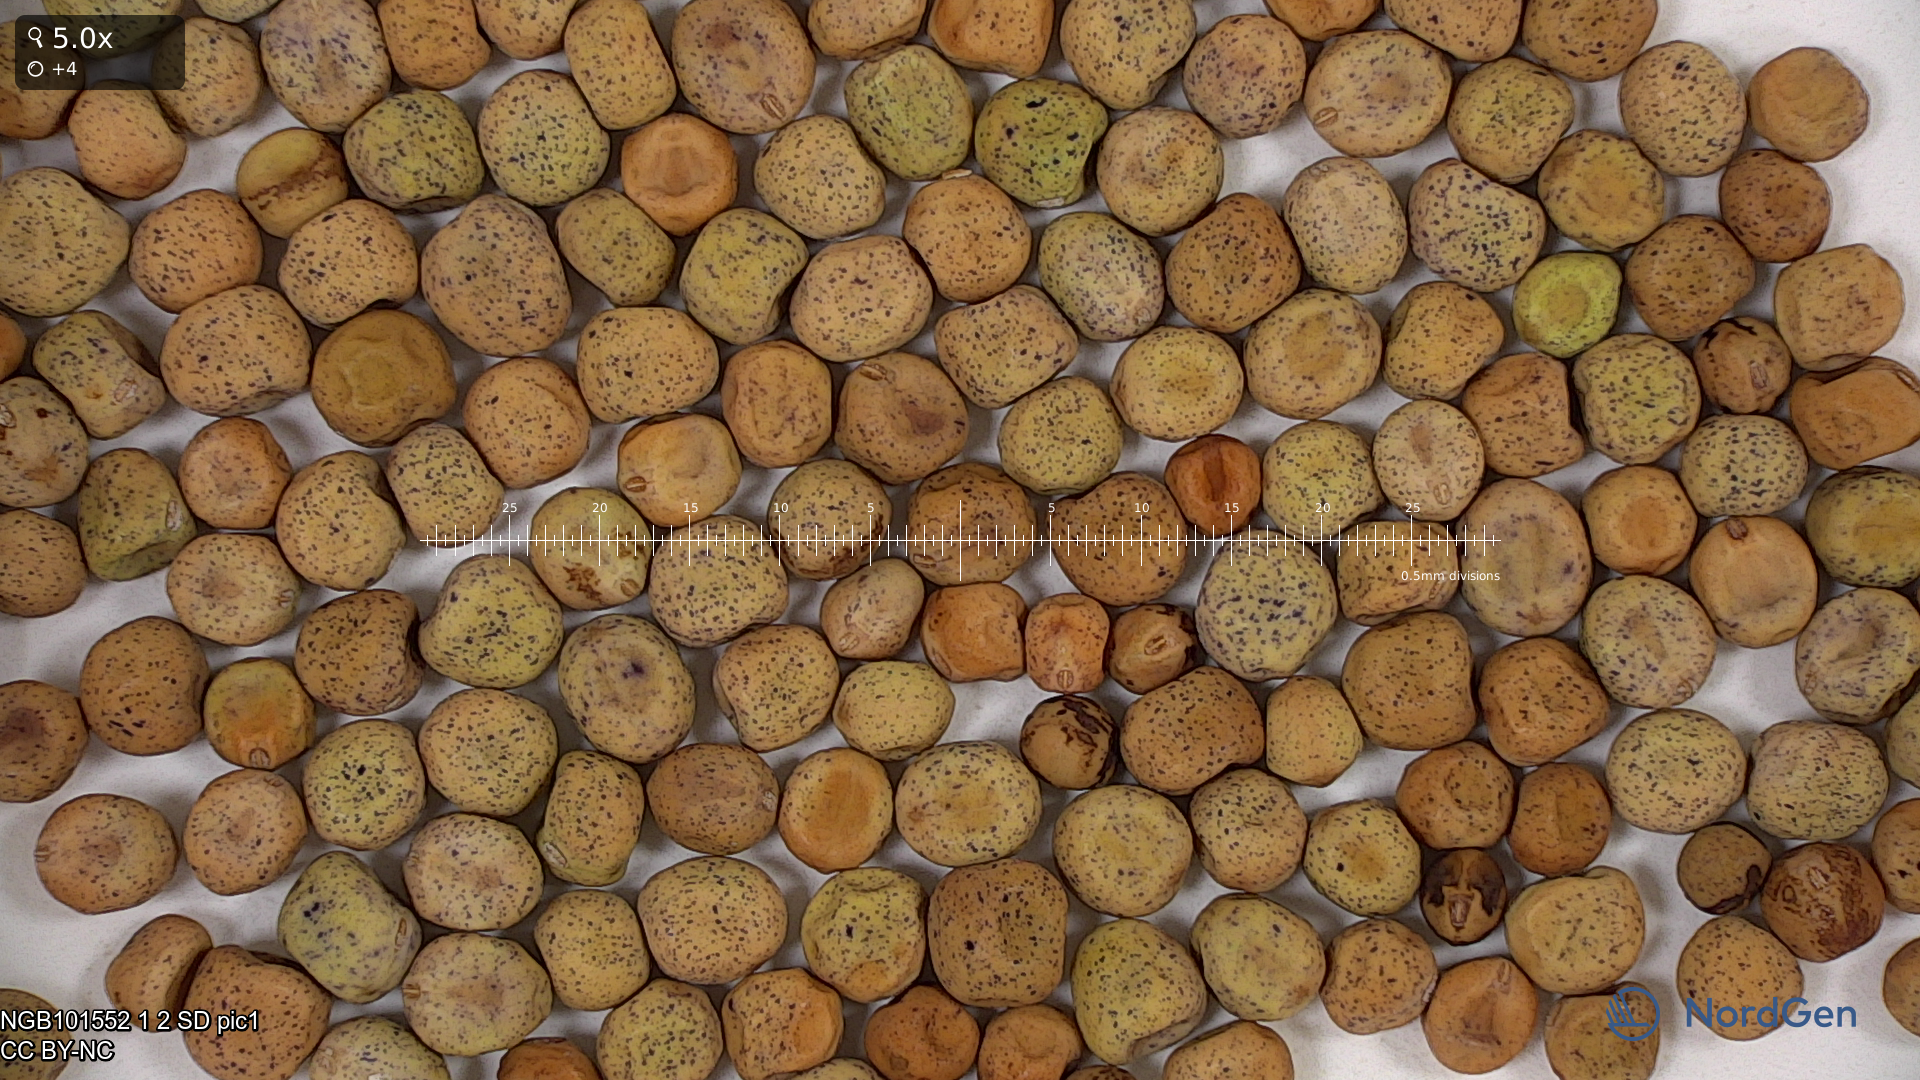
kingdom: Plantae
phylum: Tracheophyta
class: Magnoliopsida
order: Fabales
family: Fabaceae
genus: Lathyrus
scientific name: Lathyrus oleraceus
